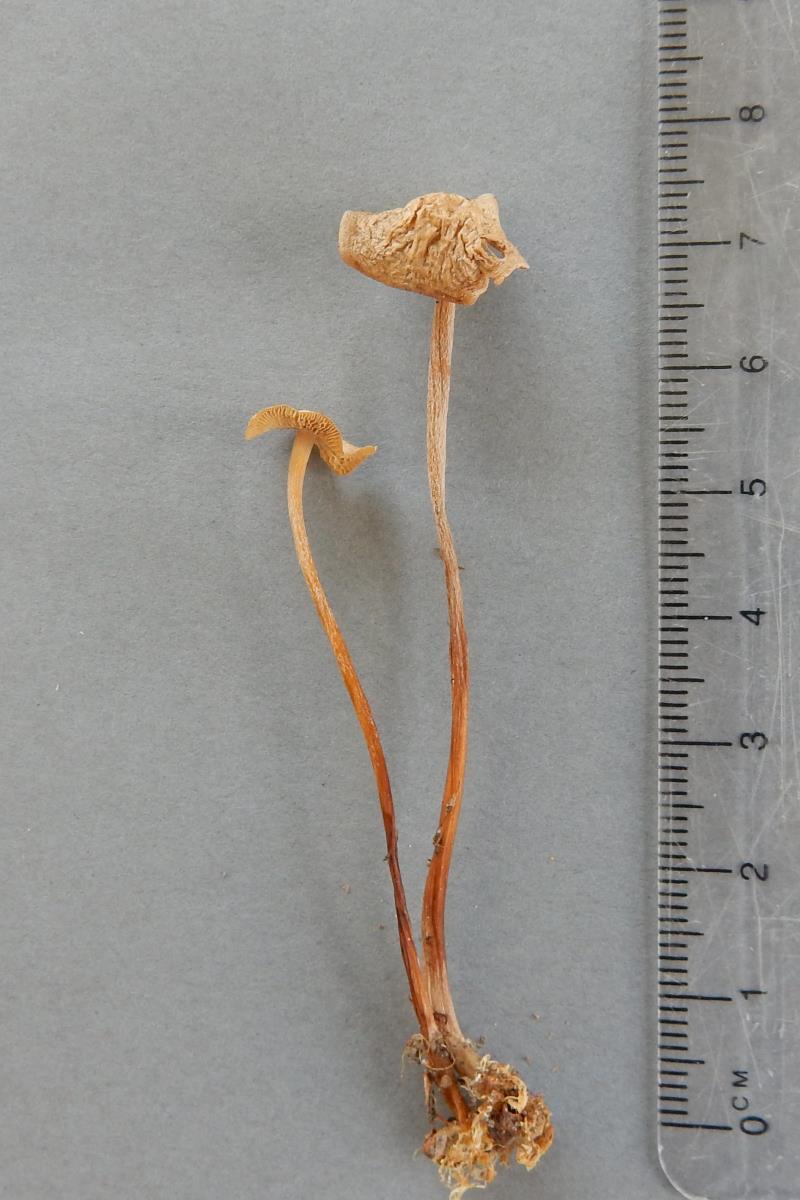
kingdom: Fungi
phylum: Basidiomycota
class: Agaricomycetes
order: Agaricales
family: Omphalotaceae
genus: Gymnopus
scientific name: Gymnopus cockaynei
